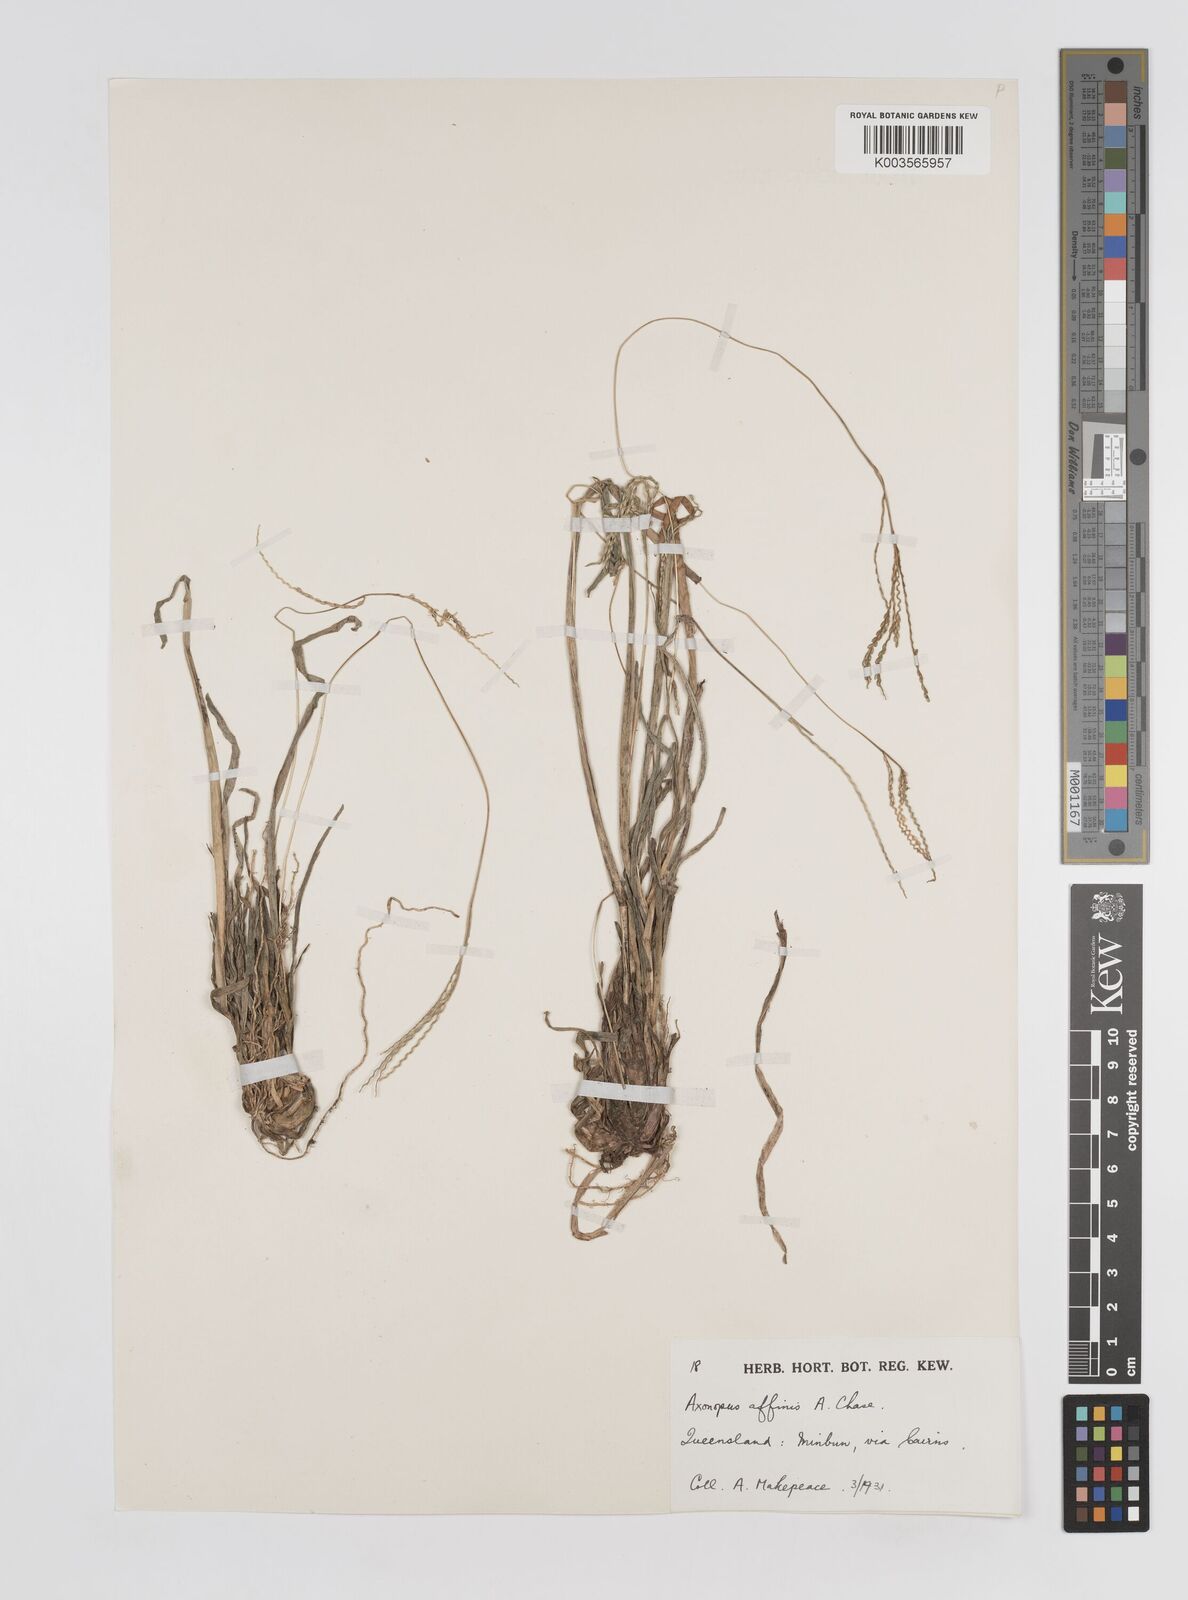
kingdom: Plantae
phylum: Tracheophyta
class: Liliopsida
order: Poales
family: Poaceae
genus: Axonopus
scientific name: Axonopus fissifolius
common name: Common carpetgrass
